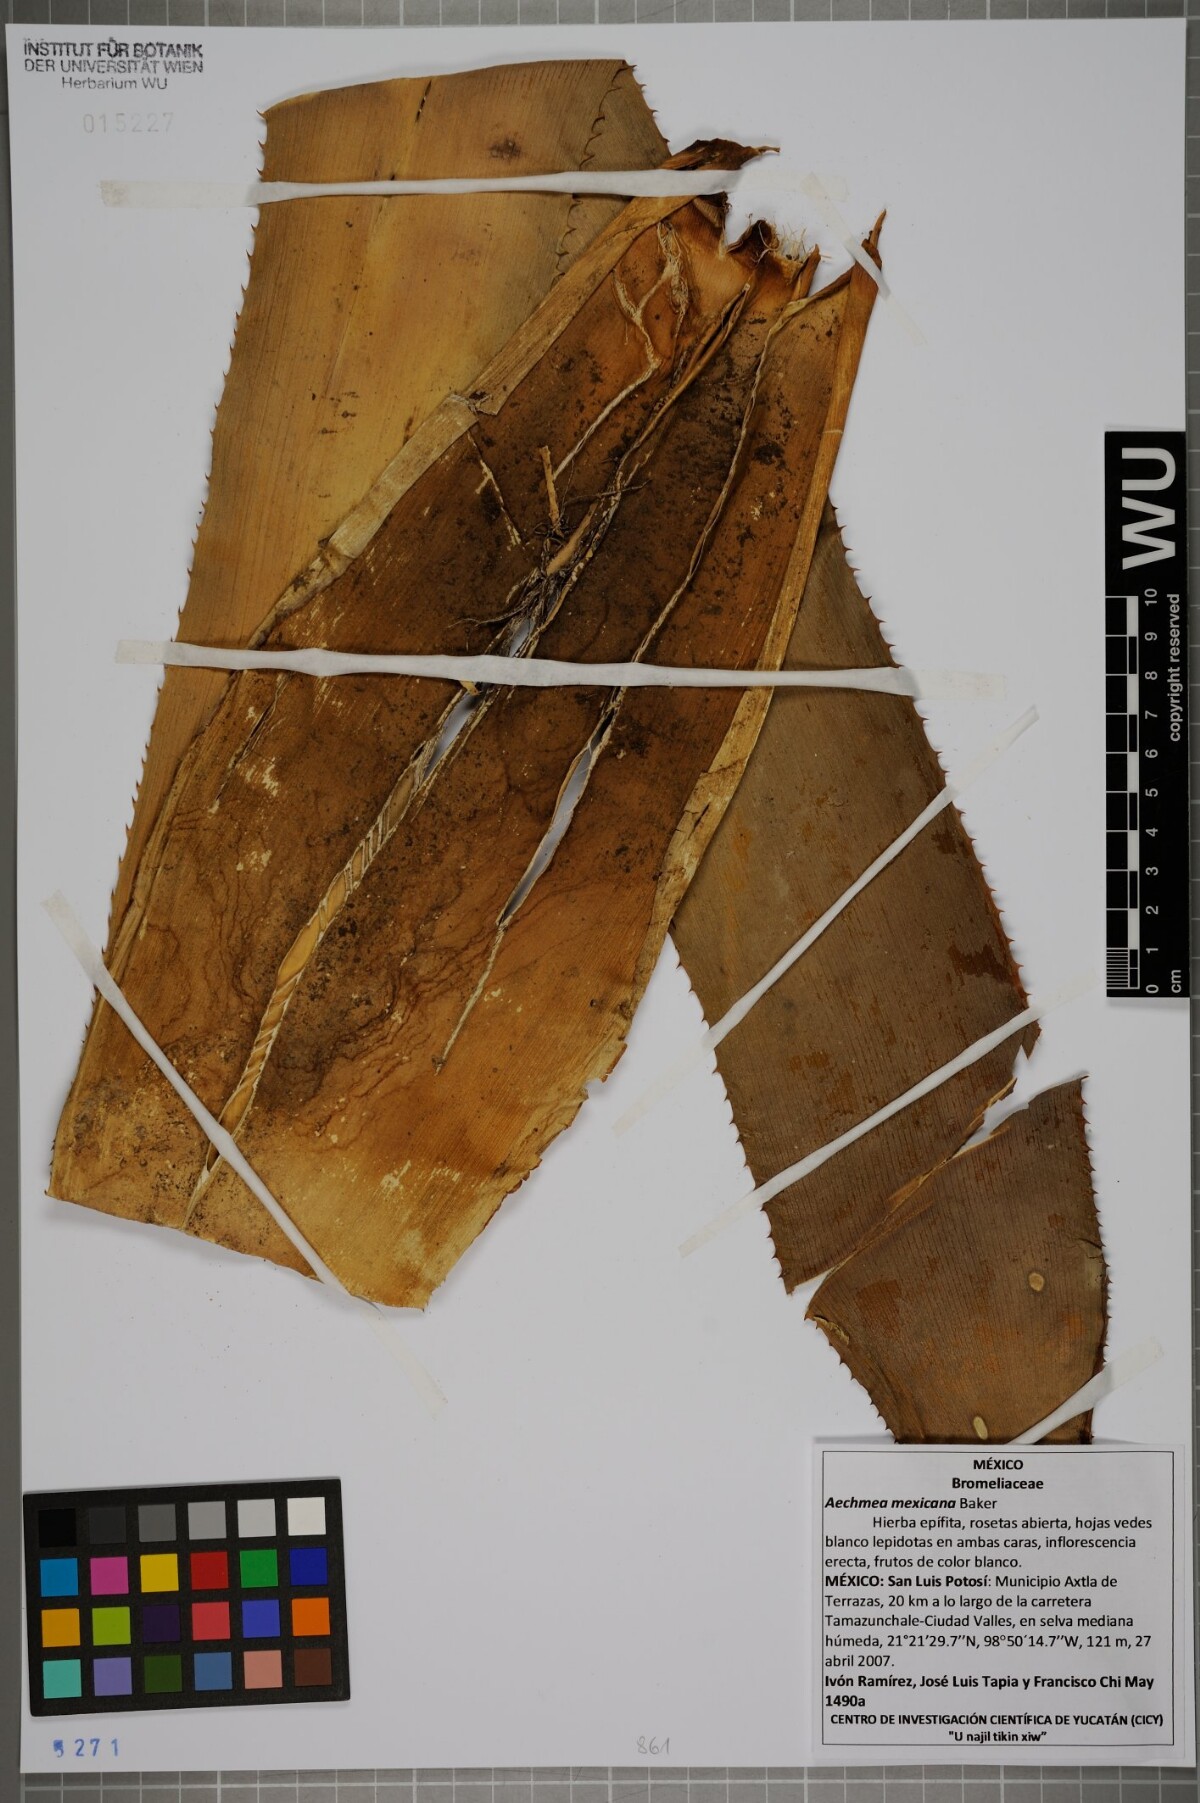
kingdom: Plantae
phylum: Tracheophyta
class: Liliopsida
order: Poales
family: Bromeliaceae
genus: Aechmea
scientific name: Aechmea mexicana
